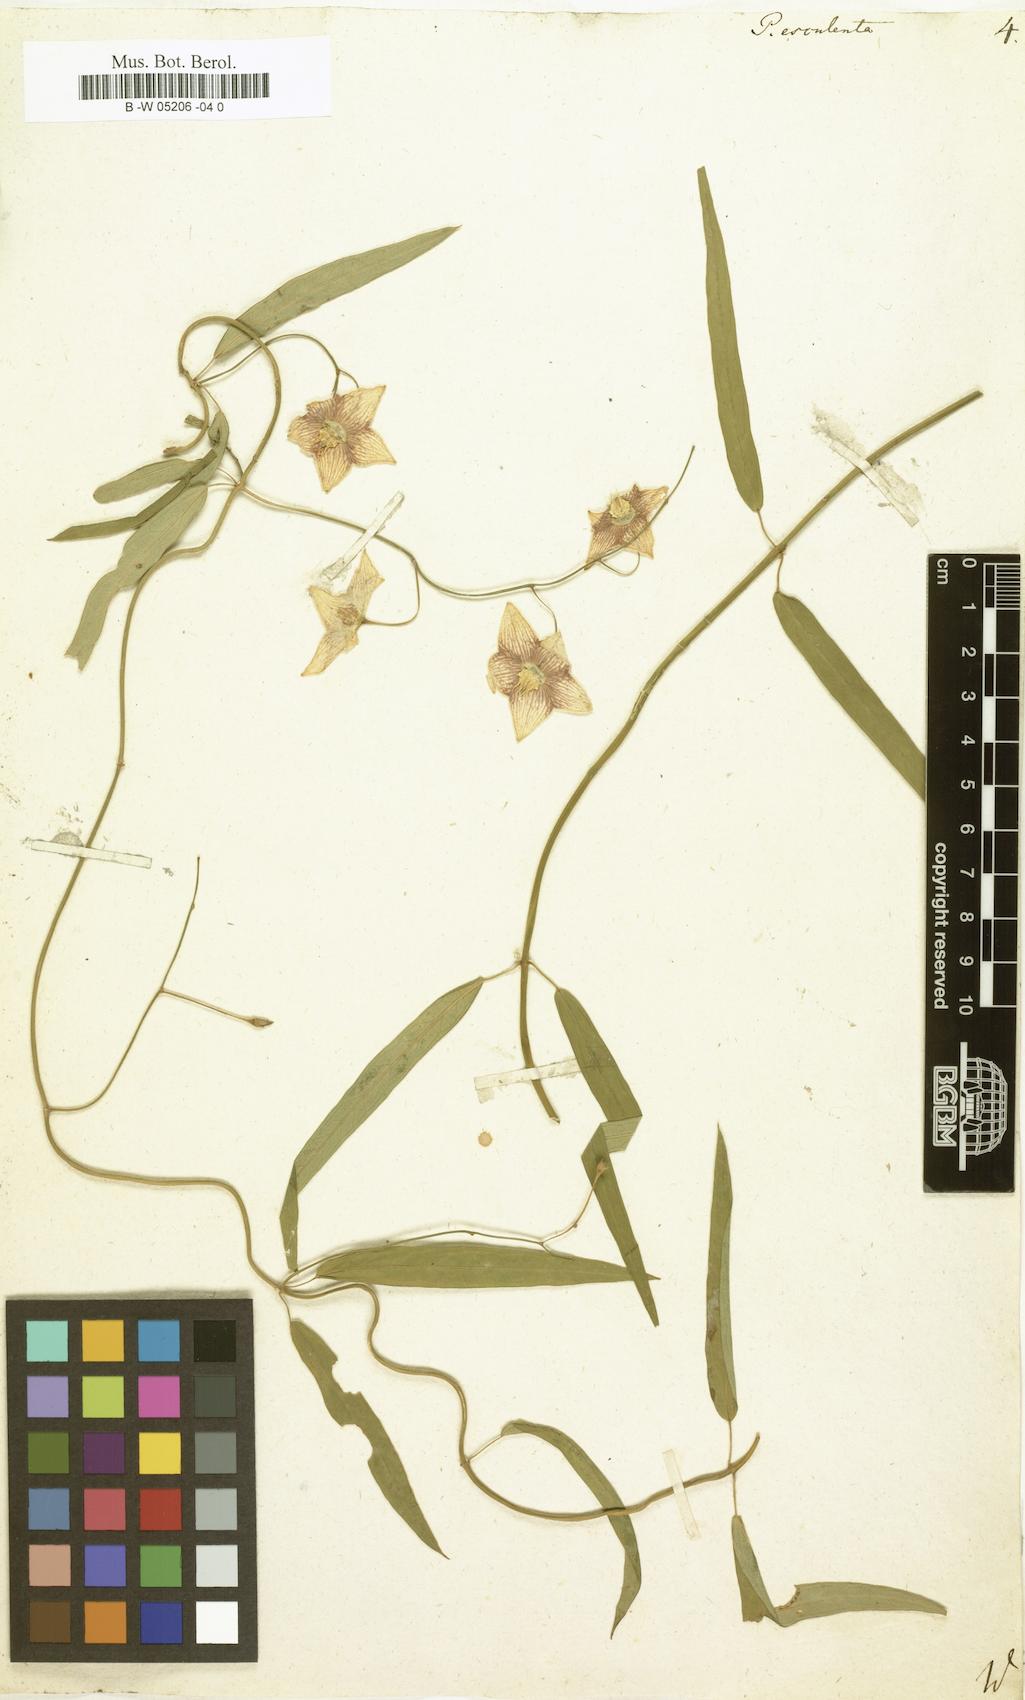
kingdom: Plantae
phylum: Tracheophyta
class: Magnoliopsida
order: Gentianales
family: Apocynaceae
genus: Oxystelma
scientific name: Oxystelma wallichii
